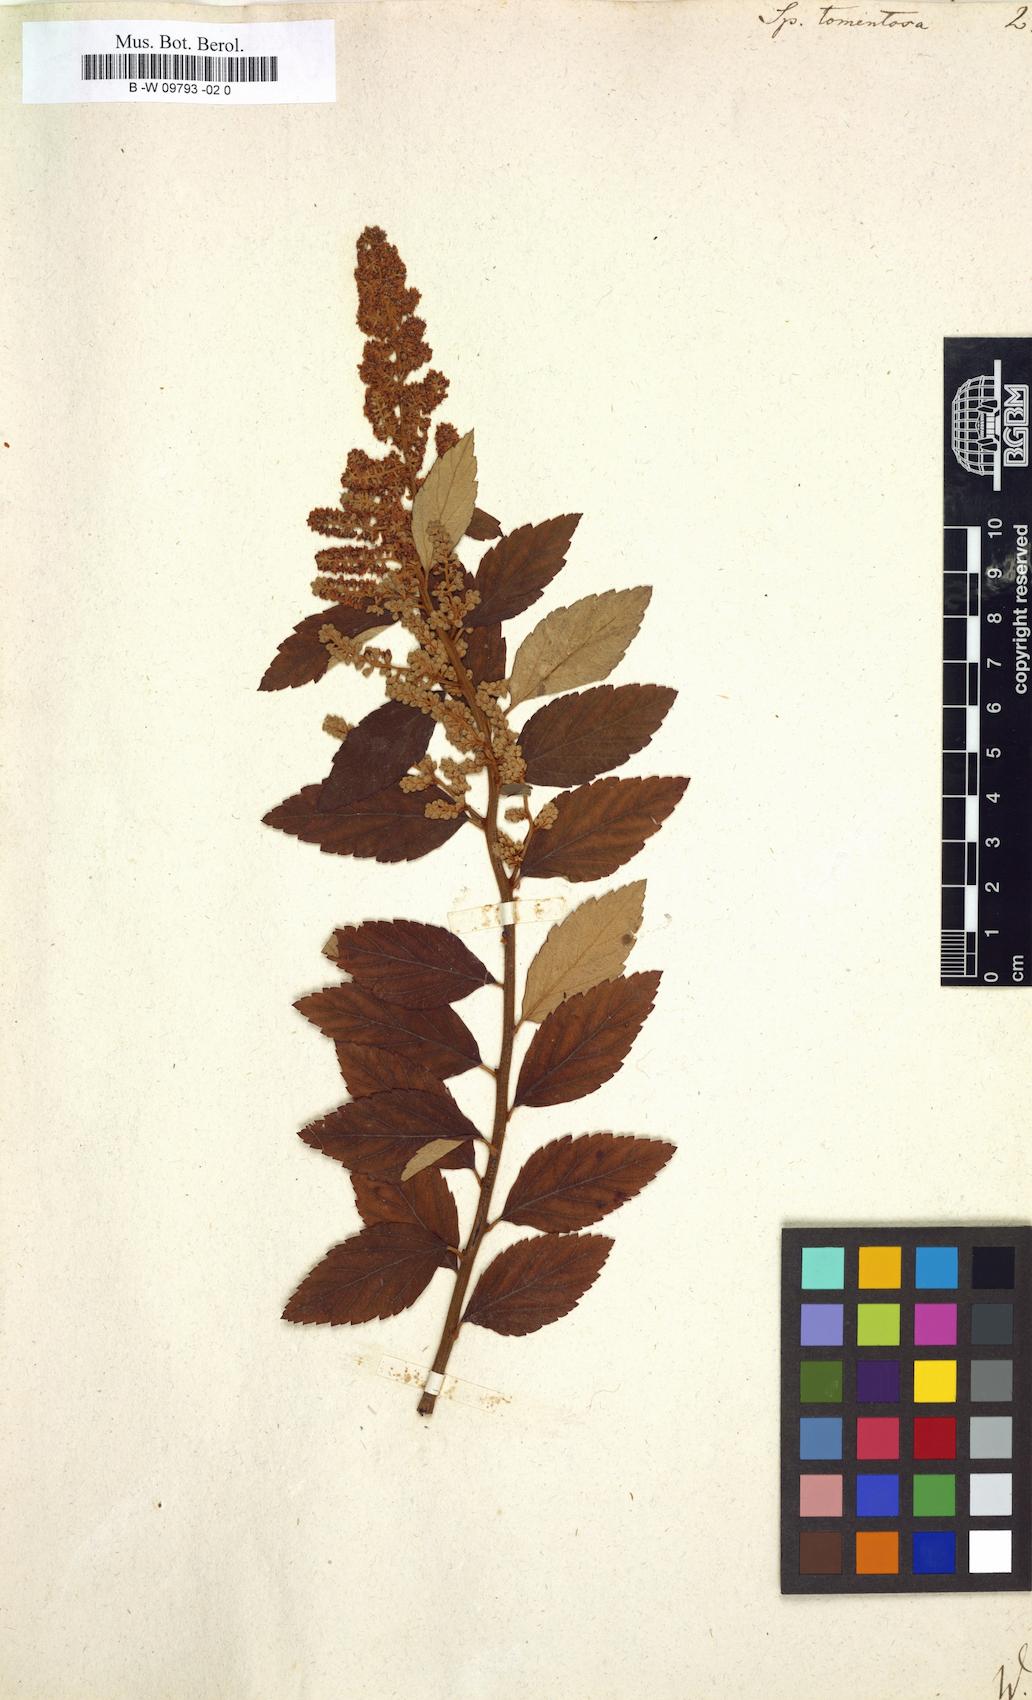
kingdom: Plantae
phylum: Tracheophyta
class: Magnoliopsida
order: Rosales
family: Rosaceae
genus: Spiraea
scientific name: Spiraea tomentosa
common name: Hardhack
